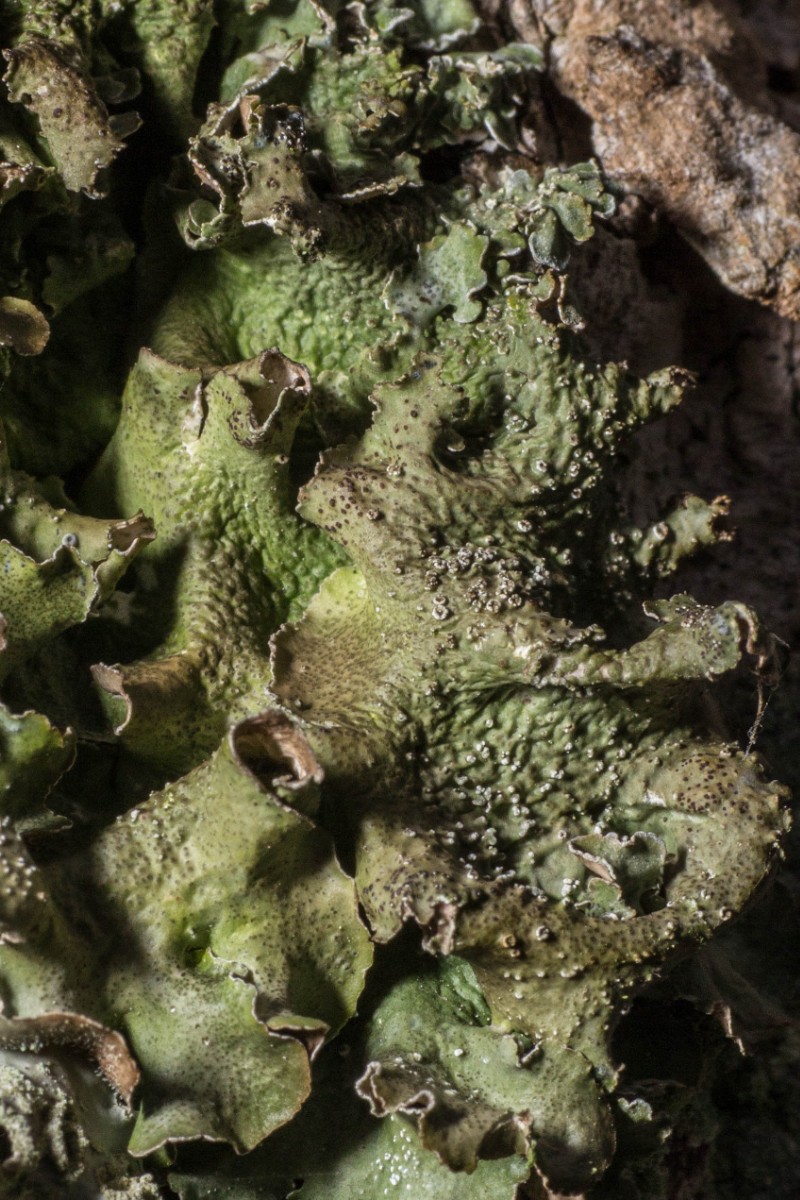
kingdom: Fungi
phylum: Ascomycota
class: Lecanoromycetes
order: Lecanorales
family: Parmeliaceae
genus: Pleurosticta
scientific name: Pleurosticta acetabulum
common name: stor skållav
